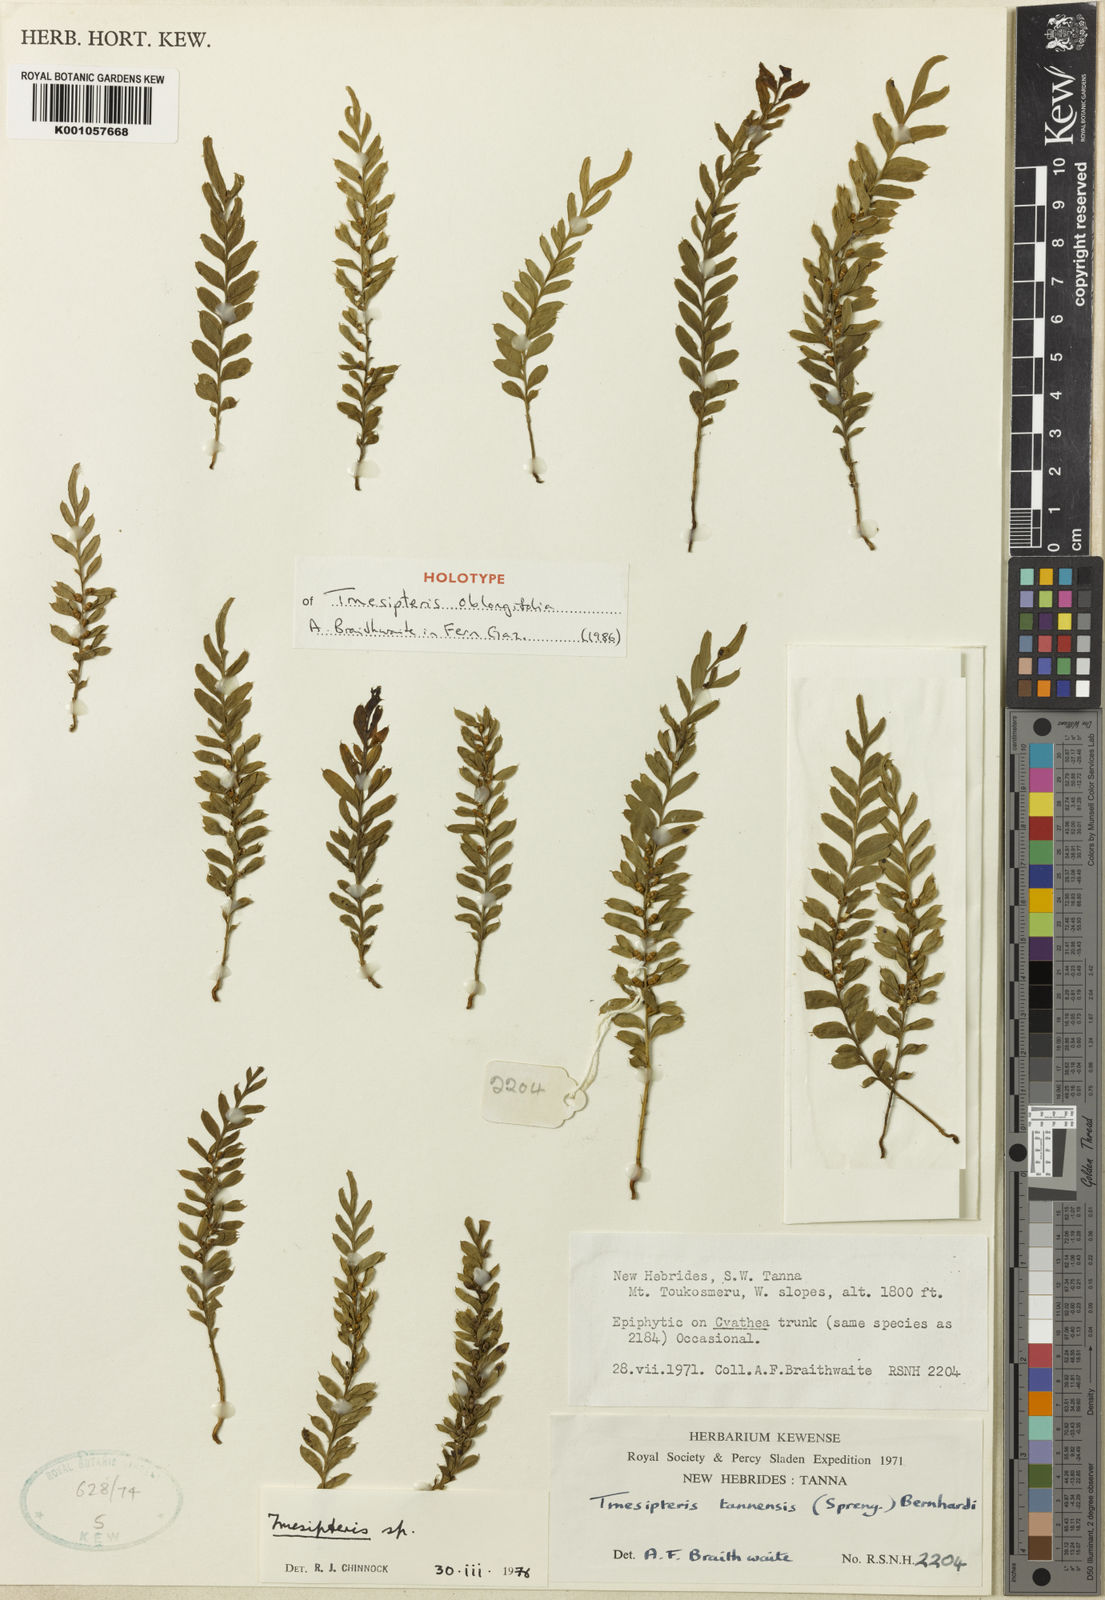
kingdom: Plantae
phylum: Tracheophyta
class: Polypodiopsida
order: Psilotales
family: Psilotaceae
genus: Tmesipteris
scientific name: Tmesipteris oblongifolia
